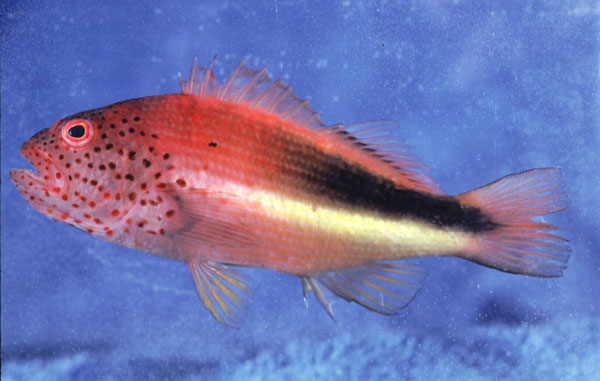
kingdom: Animalia
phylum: Chordata
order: Perciformes
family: Cirrhitidae
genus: Paracirrhites
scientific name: Paracirrhites forsteri
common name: Freckled hawkfish
